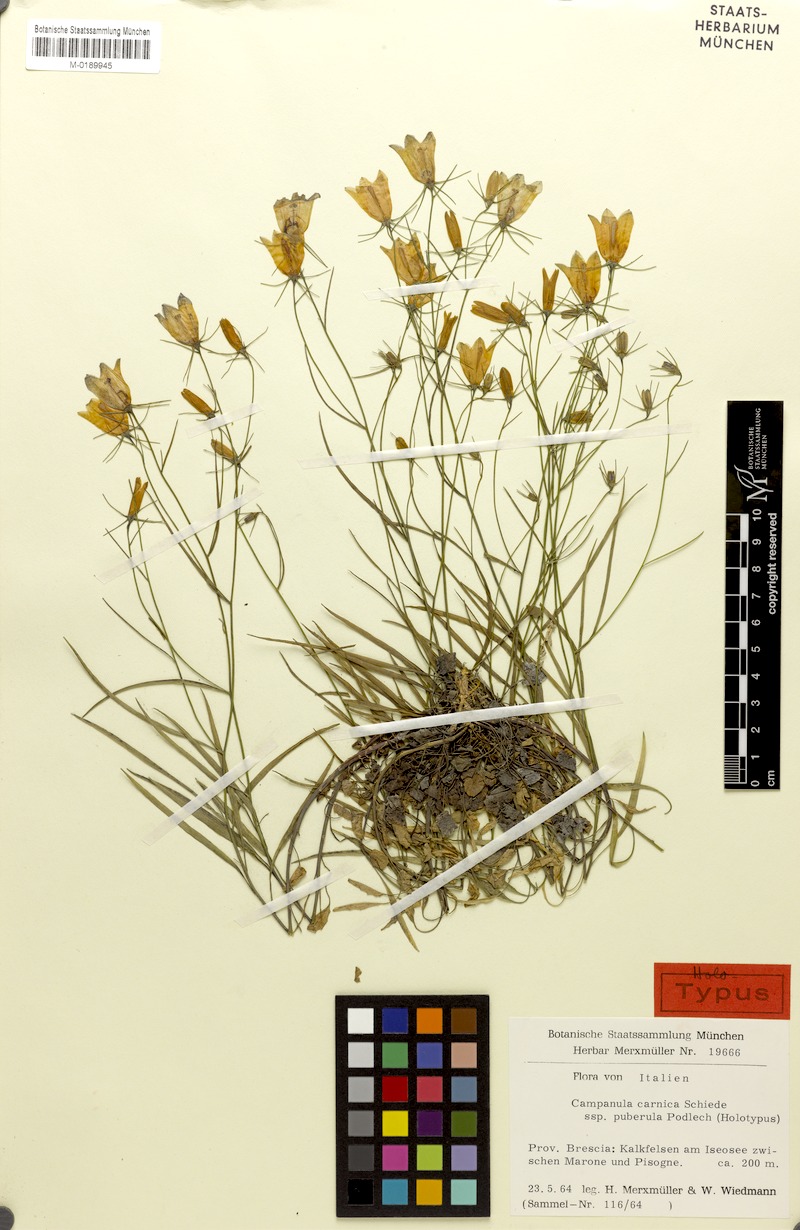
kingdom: Plantae
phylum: Tracheophyta
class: Magnoliopsida
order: Asterales
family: Campanulaceae
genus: Campanula
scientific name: Campanula carnica
